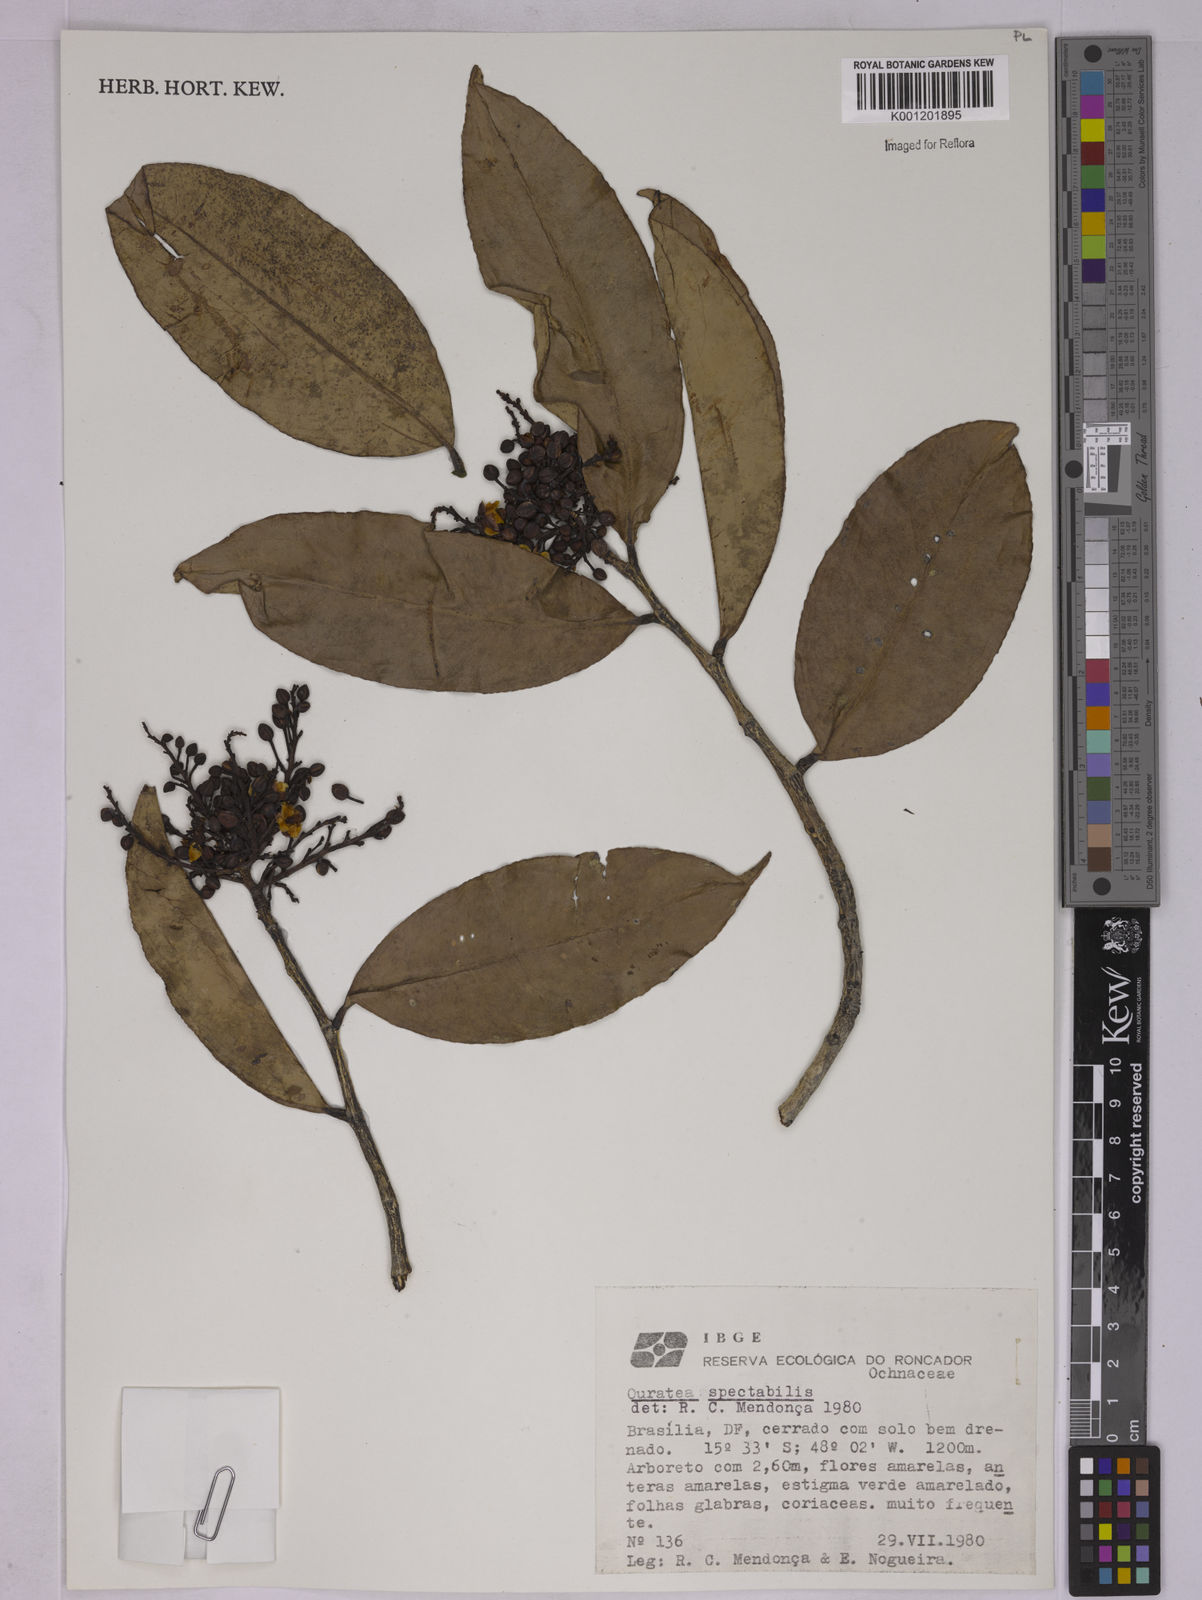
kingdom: Plantae
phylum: Tracheophyta
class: Magnoliopsida
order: Malpighiales
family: Ochnaceae
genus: Ouratea
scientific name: Ouratea spectabilis
